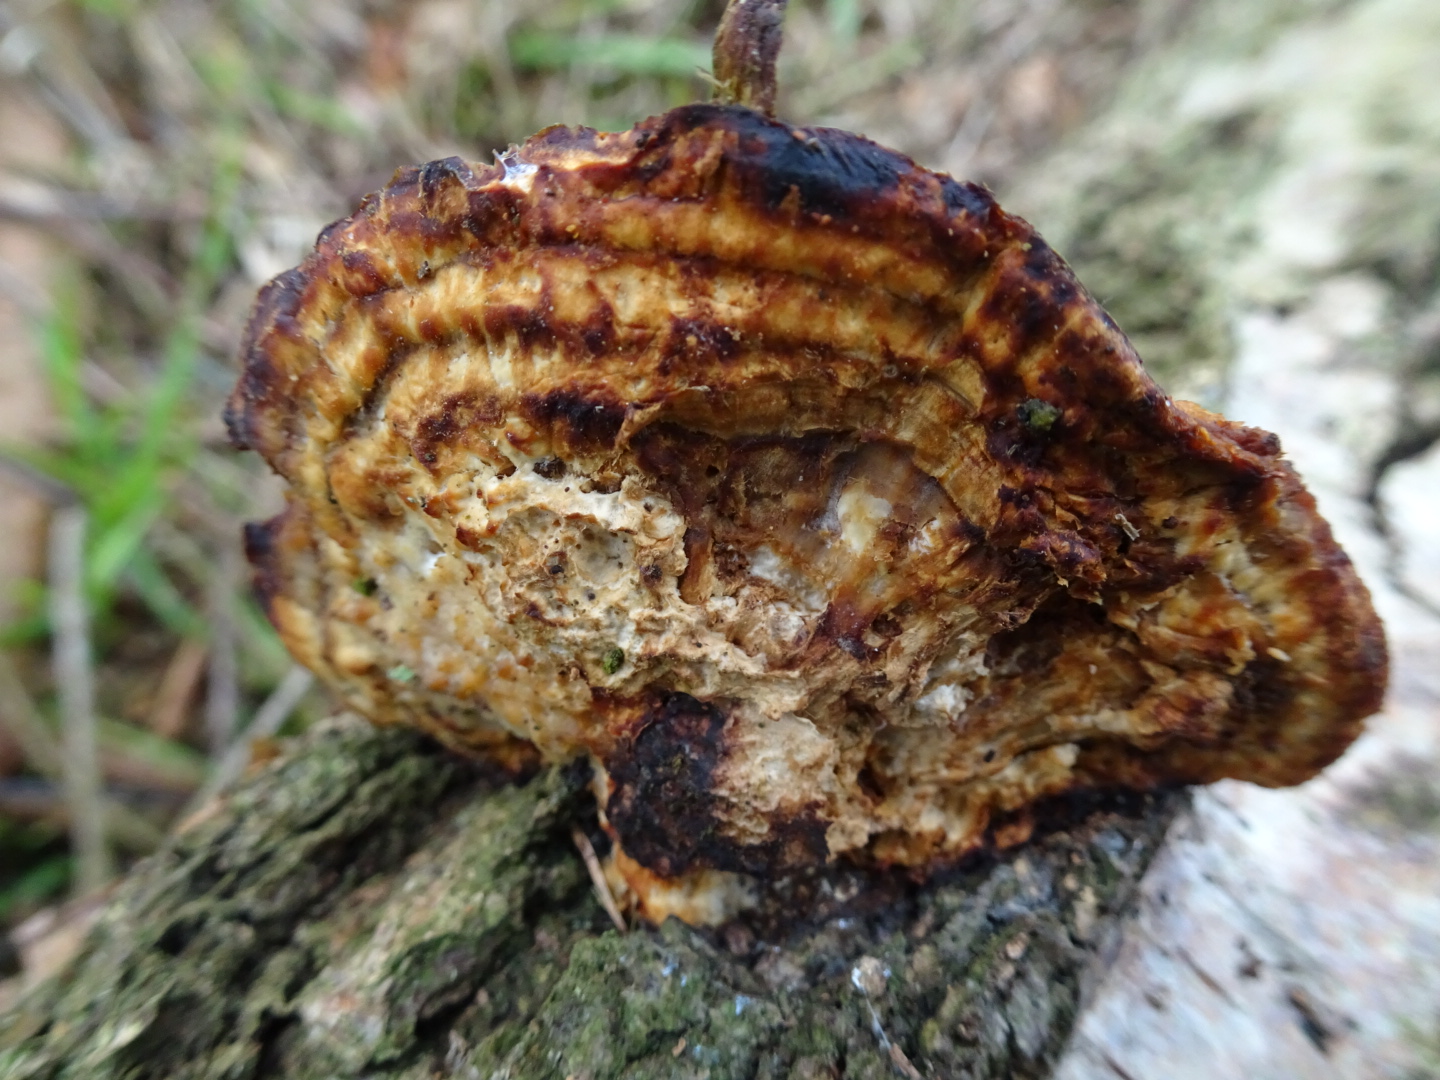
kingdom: Fungi
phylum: Basidiomycota
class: Agaricomycetes
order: Polyporales
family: Polyporaceae
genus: Daedaleopsis
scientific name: Daedaleopsis confragosa
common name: rødmende læderporesvamp
